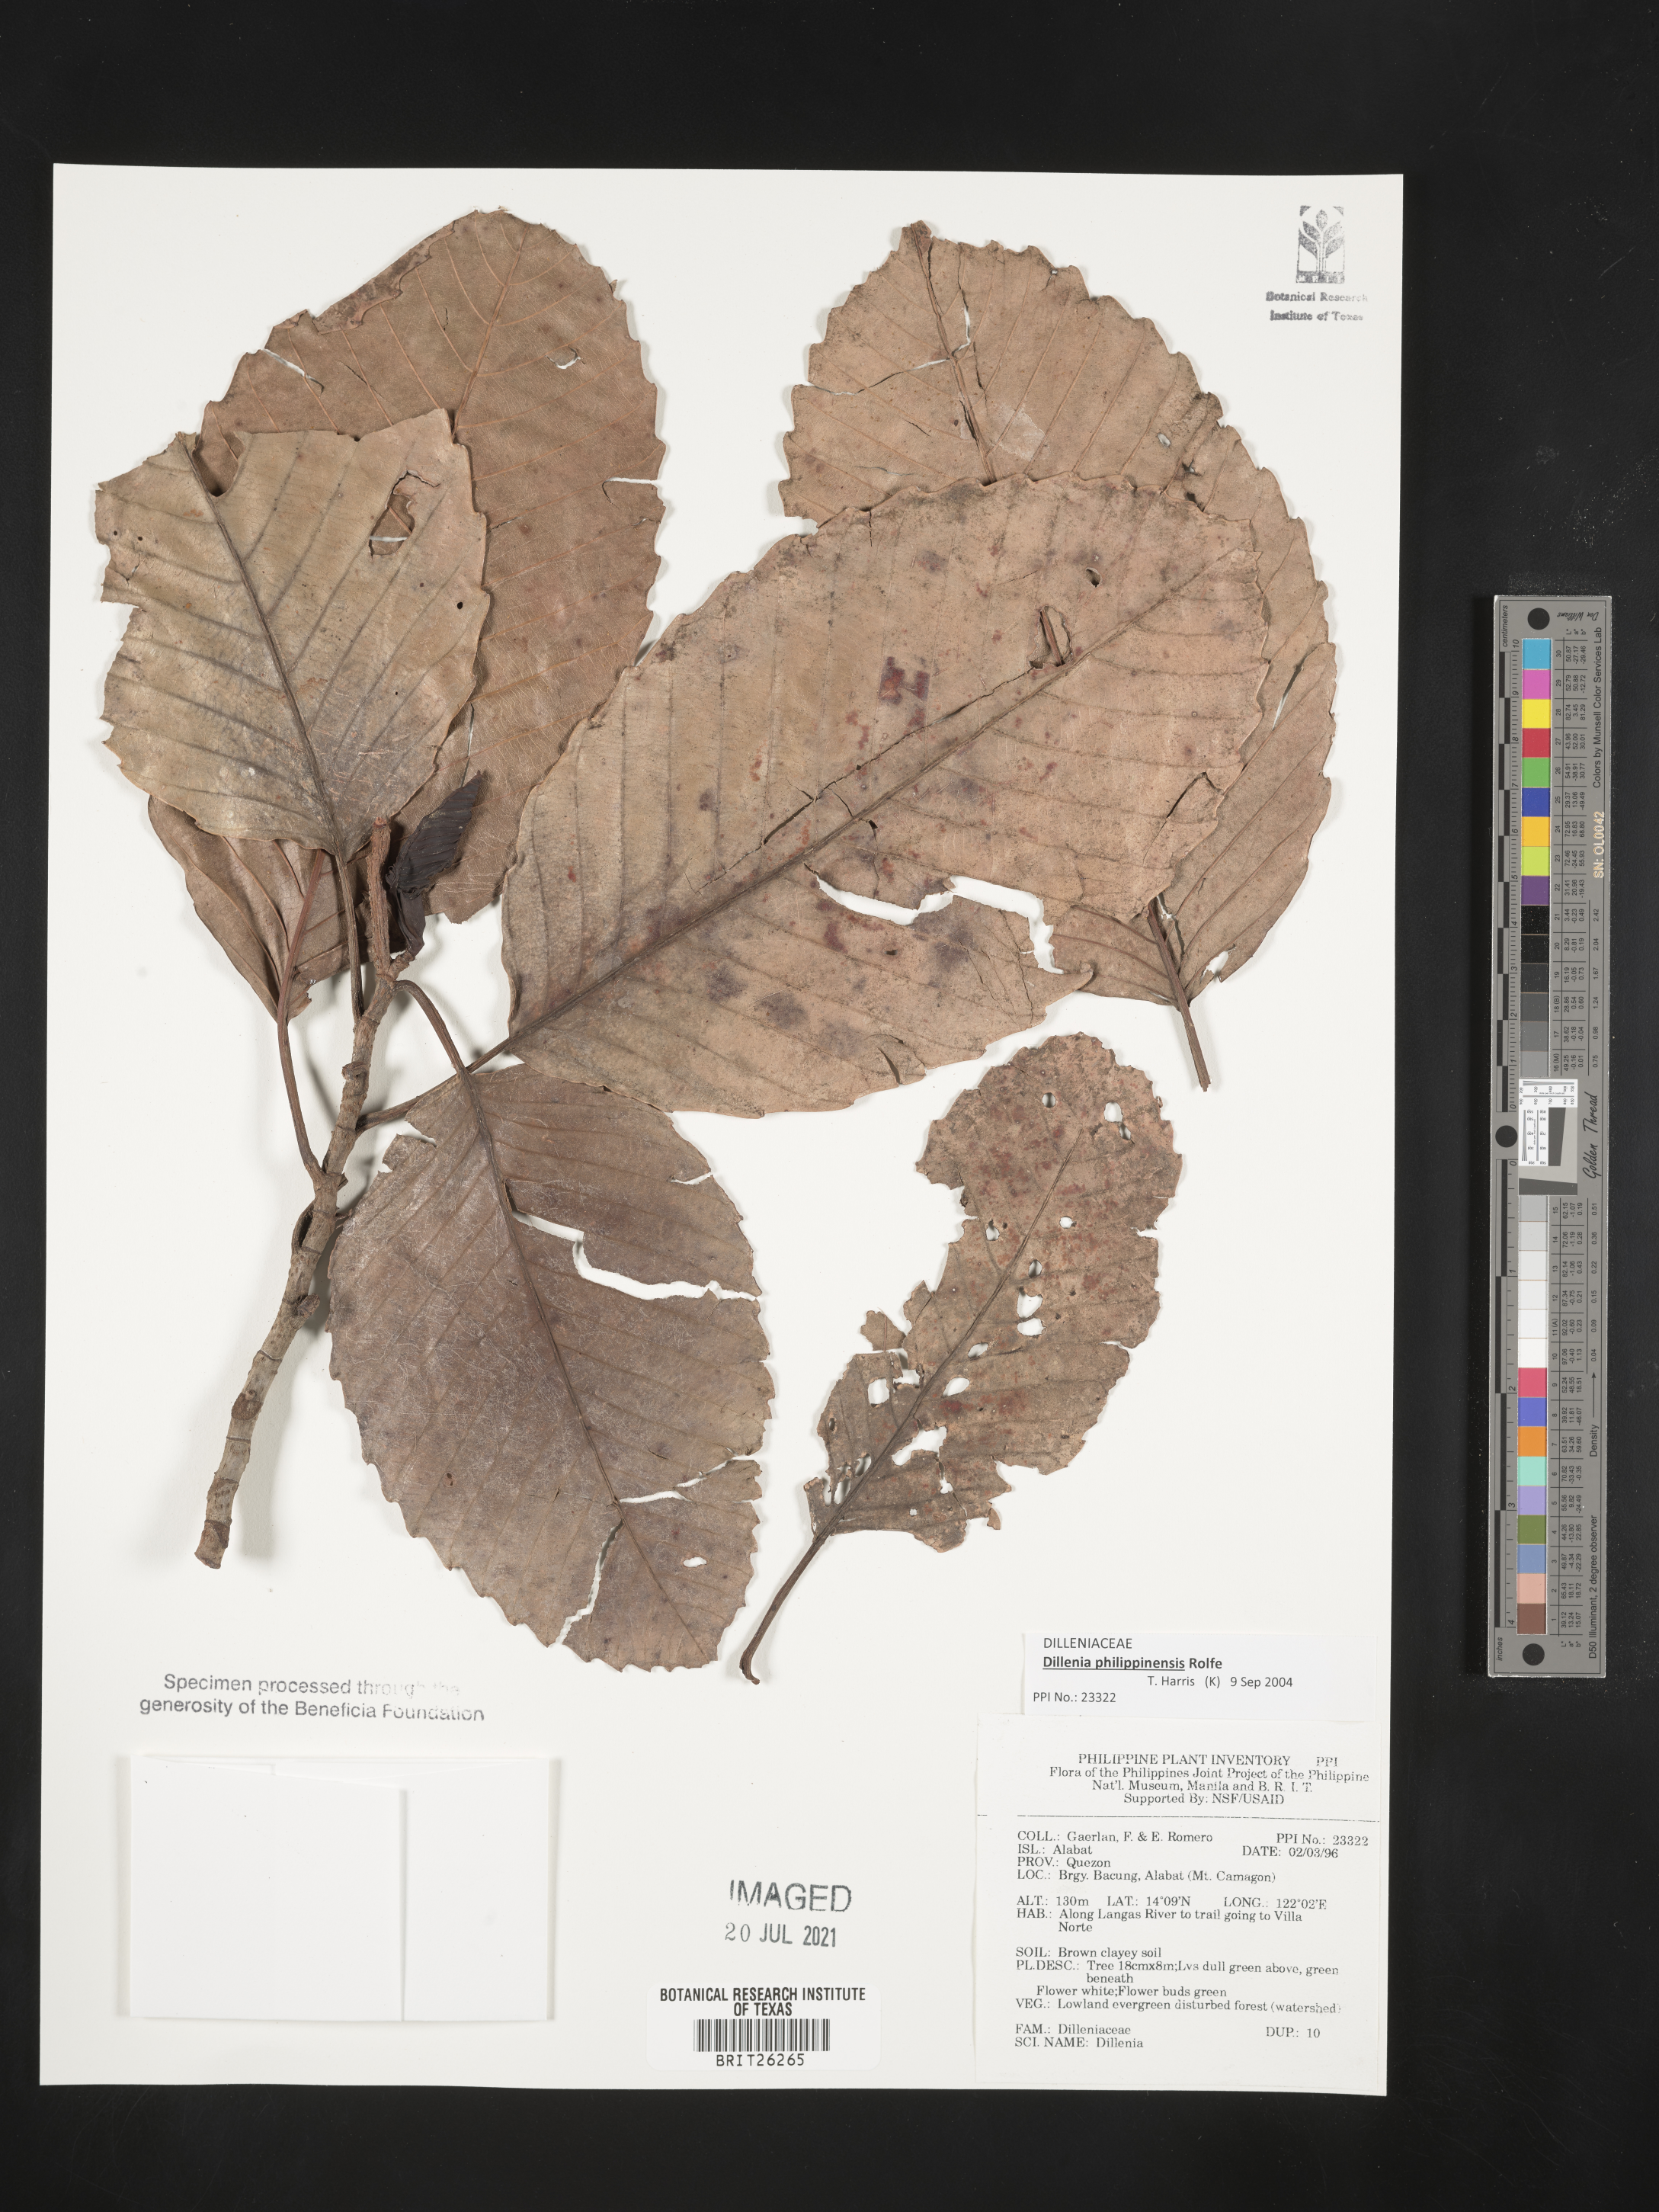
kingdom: Plantae
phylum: Tracheophyta
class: Magnoliopsida
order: Dilleniales
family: Dilleniaceae
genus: Dillenia
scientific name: Dillenia
